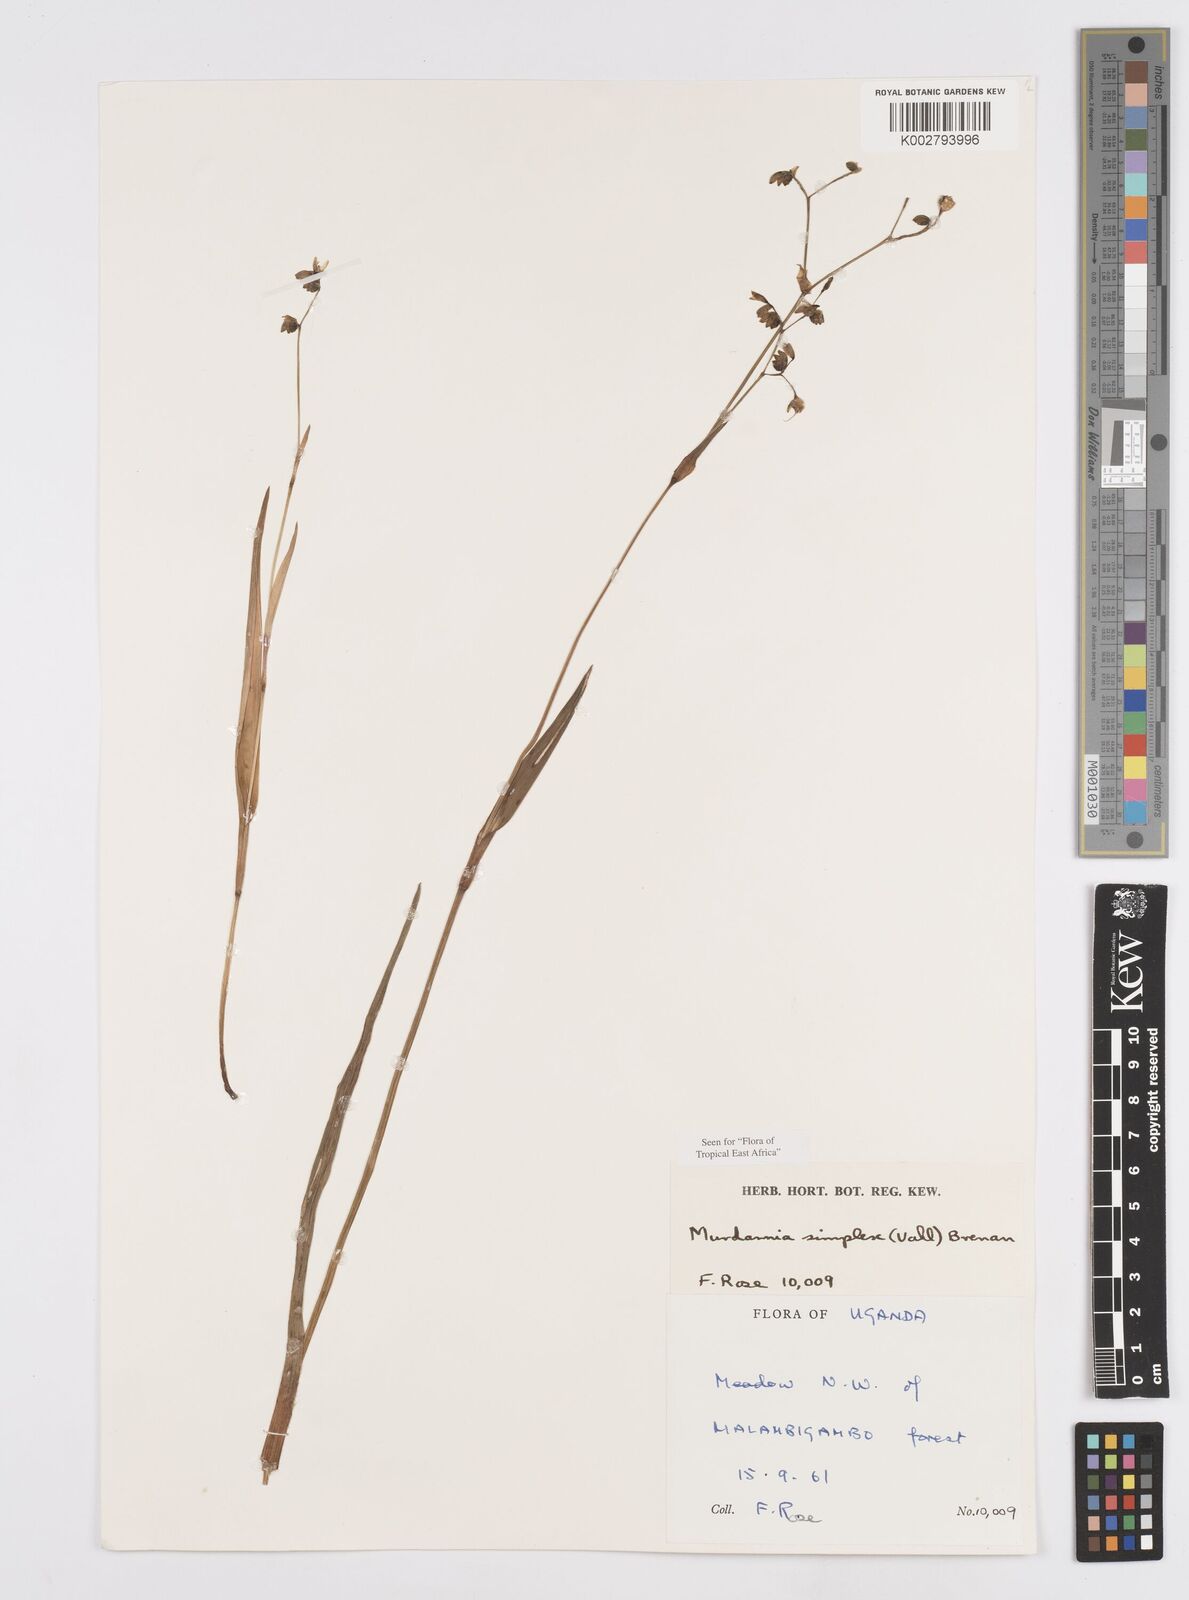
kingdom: Plantae
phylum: Tracheophyta
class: Liliopsida
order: Commelinales
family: Commelinaceae
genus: Murdannia
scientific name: Murdannia simplex
